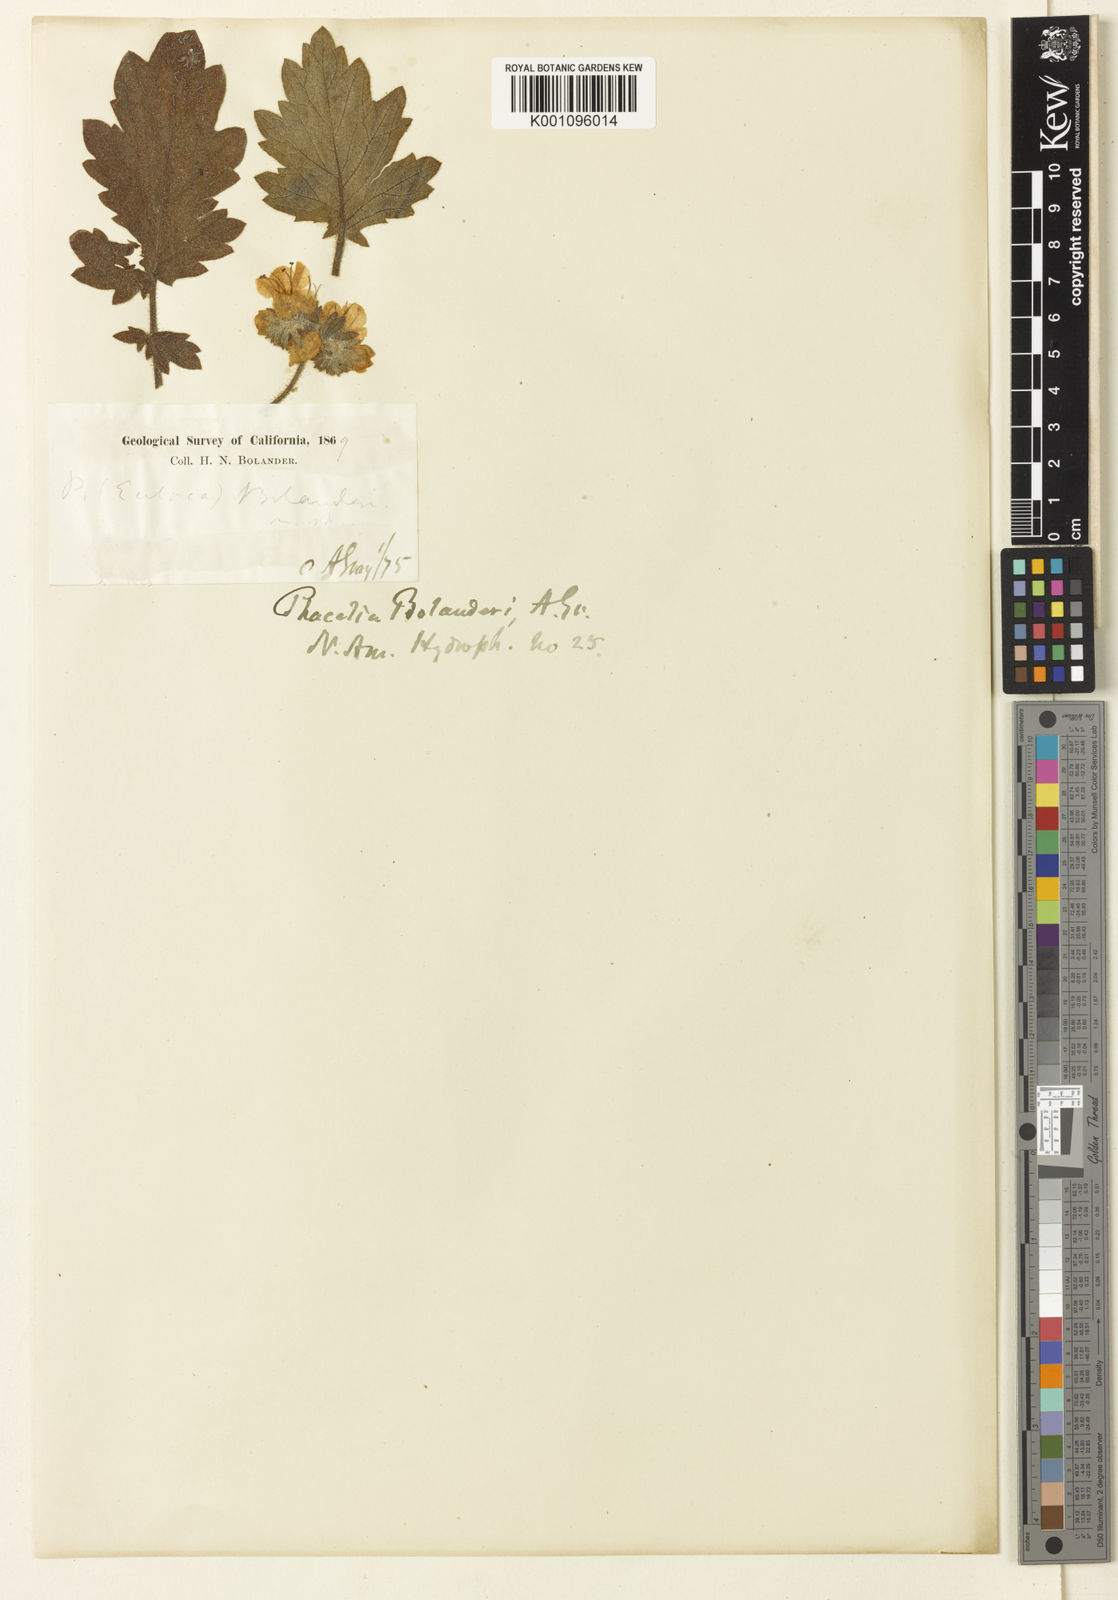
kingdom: Plantae
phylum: Tracheophyta
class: Magnoliopsida
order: Boraginales
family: Hydrophyllaceae
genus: Phacelia
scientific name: Phacelia bolanderi
